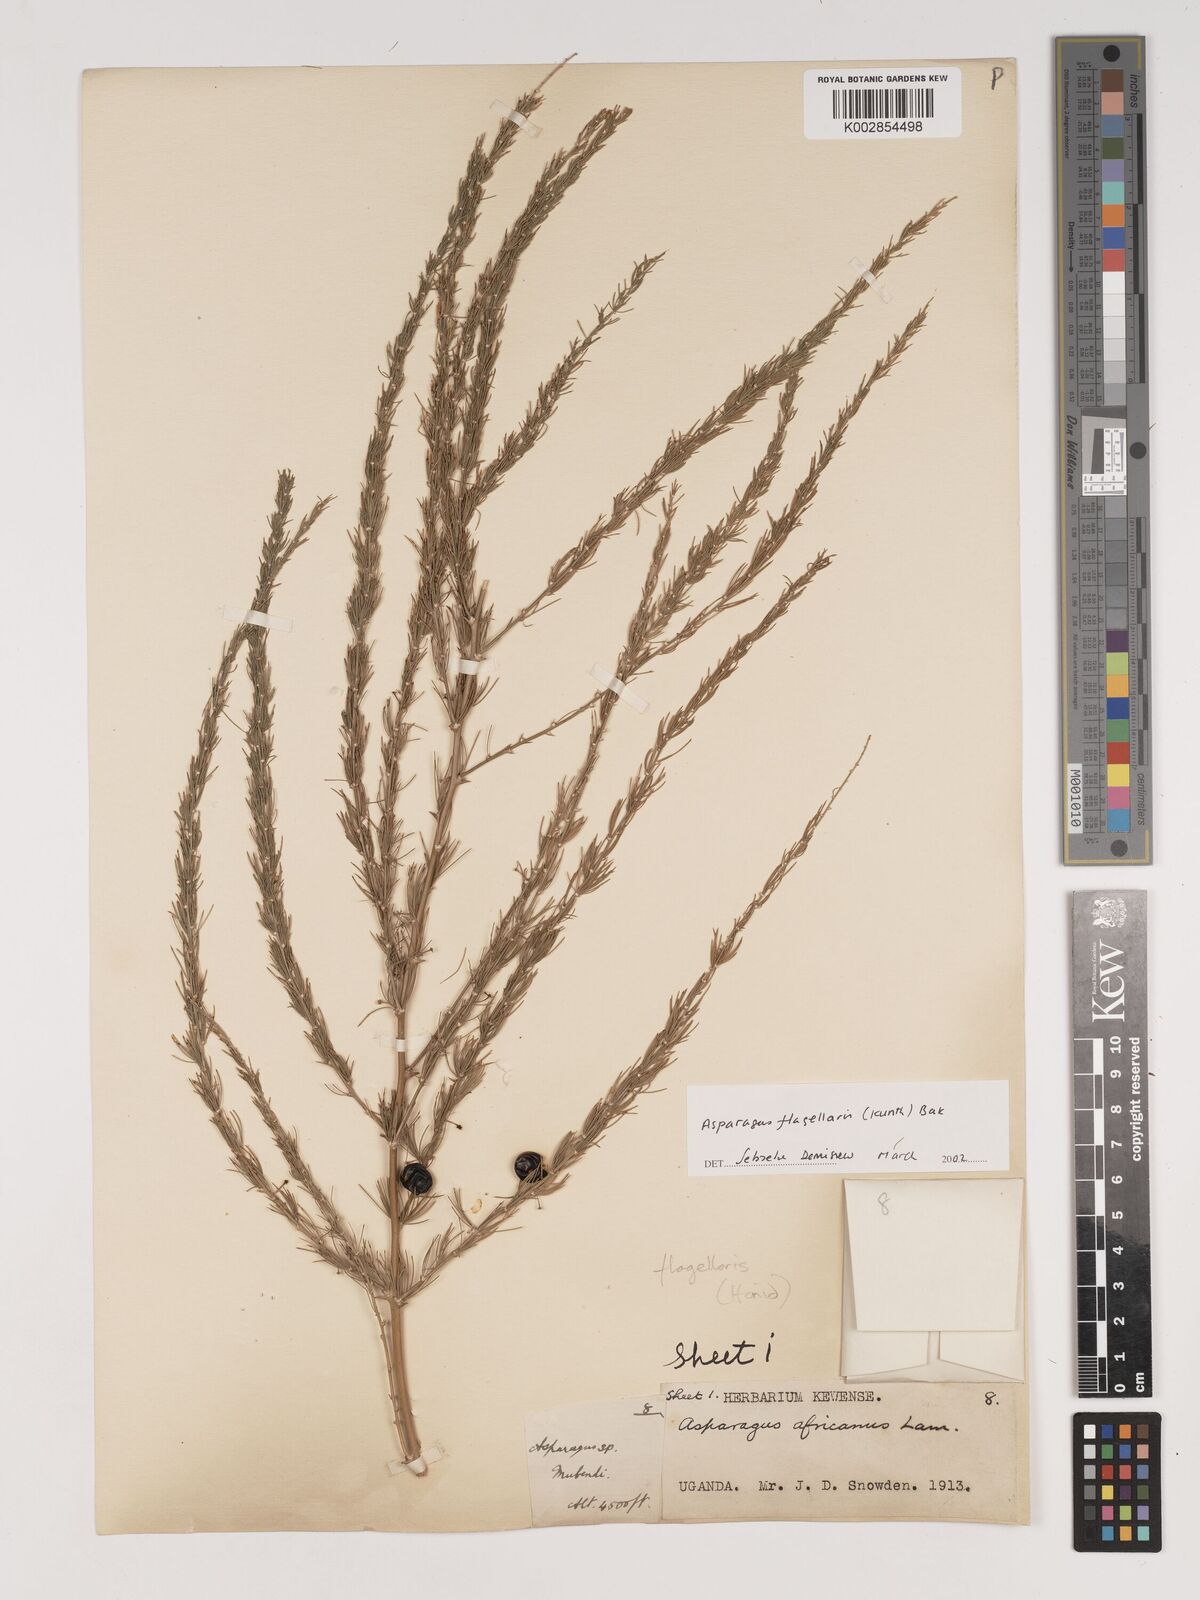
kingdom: Plantae
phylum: Tracheophyta
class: Liliopsida
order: Asparagales
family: Asparagaceae
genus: Asparagus
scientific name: Asparagus flagellaris
